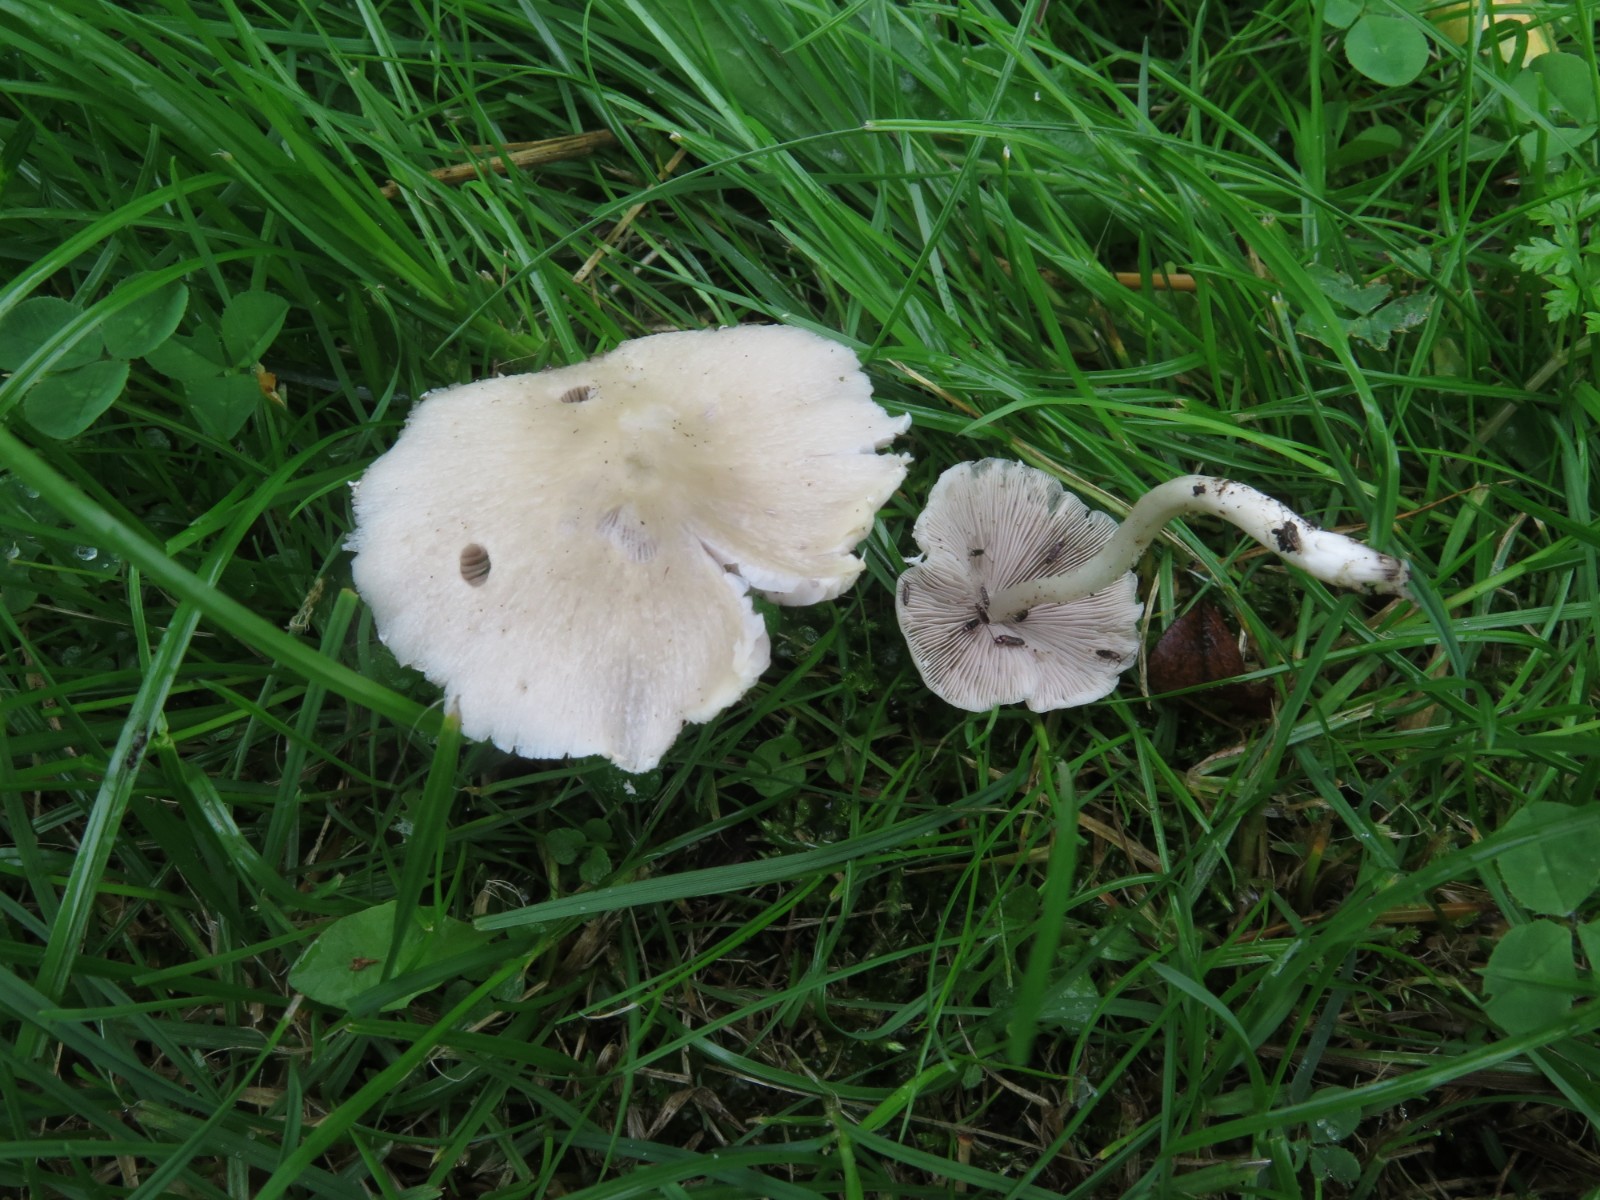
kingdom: Fungi
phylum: Basidiomycota
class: Agaricomycetes
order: Agaricales
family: Psathyrellaceae
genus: Candolleomyces
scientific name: Candolleomyces candolleanus
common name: Candolles mørkhat
